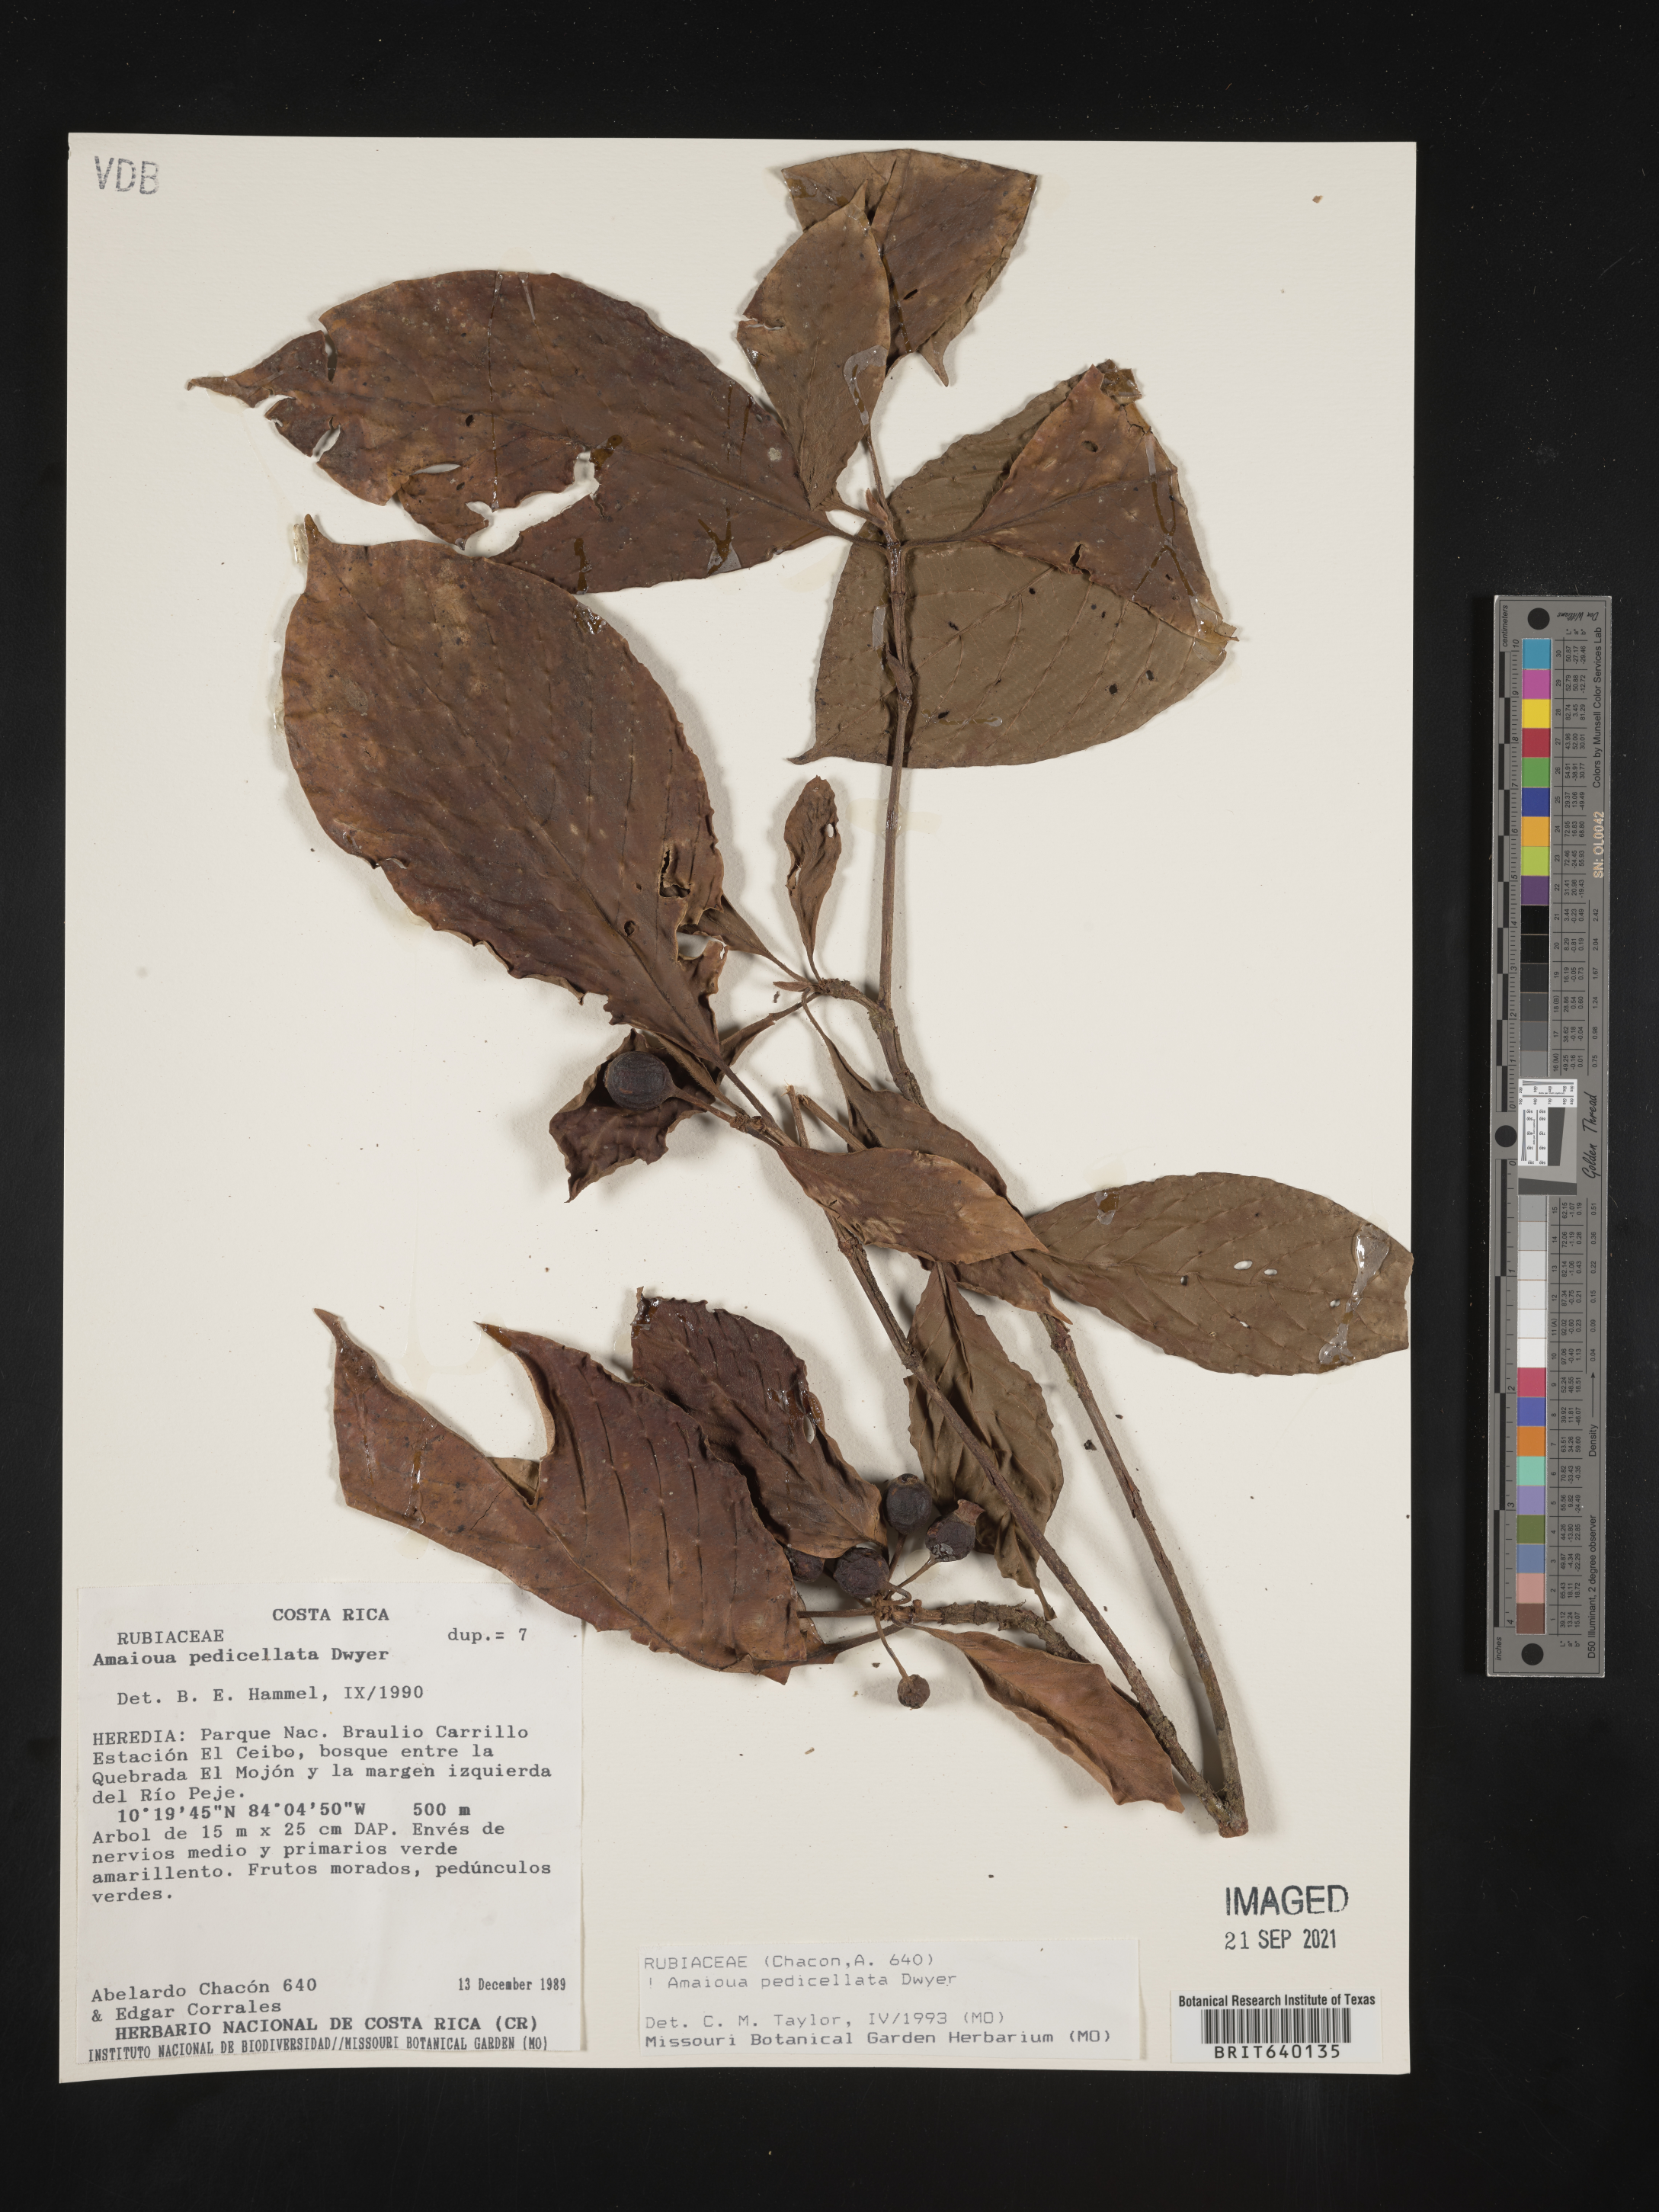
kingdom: Plantae
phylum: Tracheophyta
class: Magnoliopsida
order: Gentianales
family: Rubiaceae
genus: Amaioua
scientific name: Amaioua
